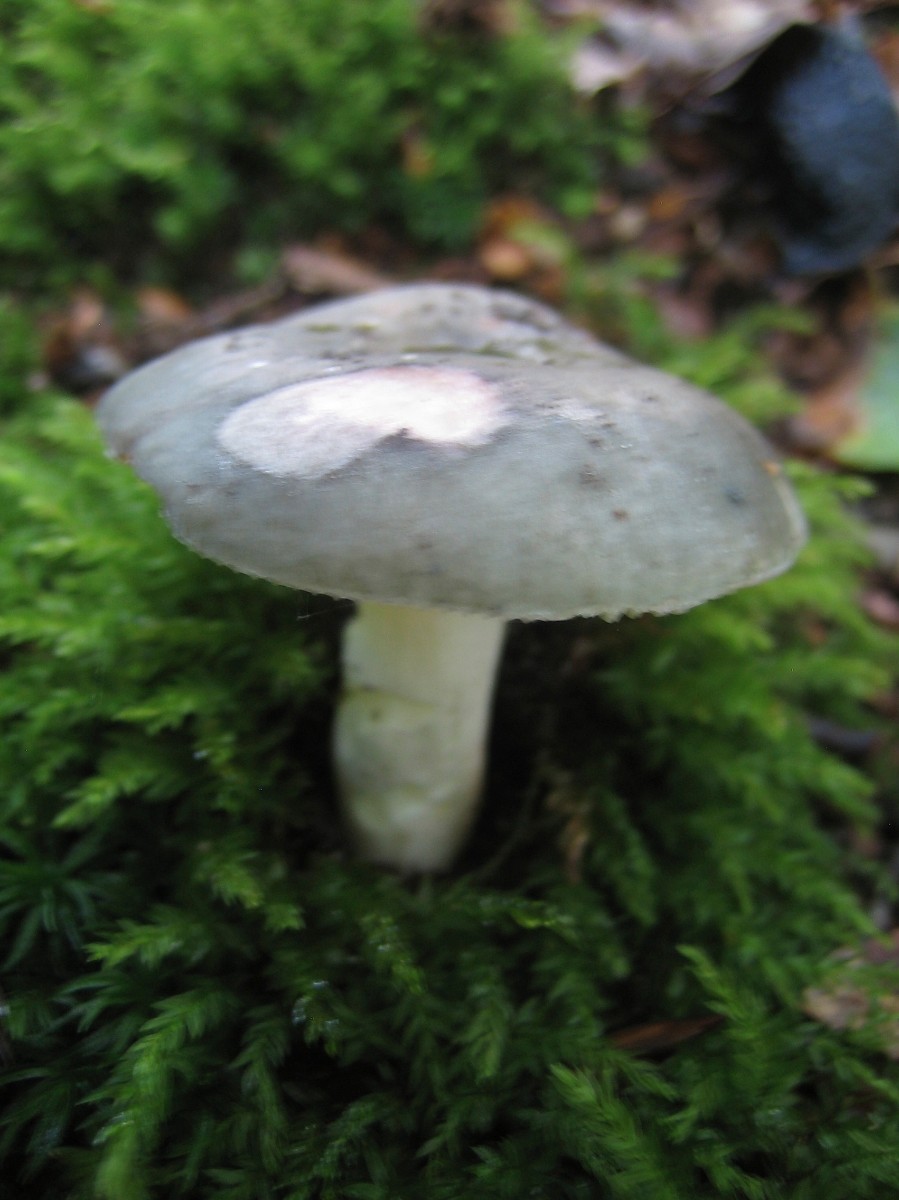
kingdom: Fungi
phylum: Basidiomycota
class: Agaricomycetes
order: Russulales
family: Russulaceae
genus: Russula
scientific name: Russula
